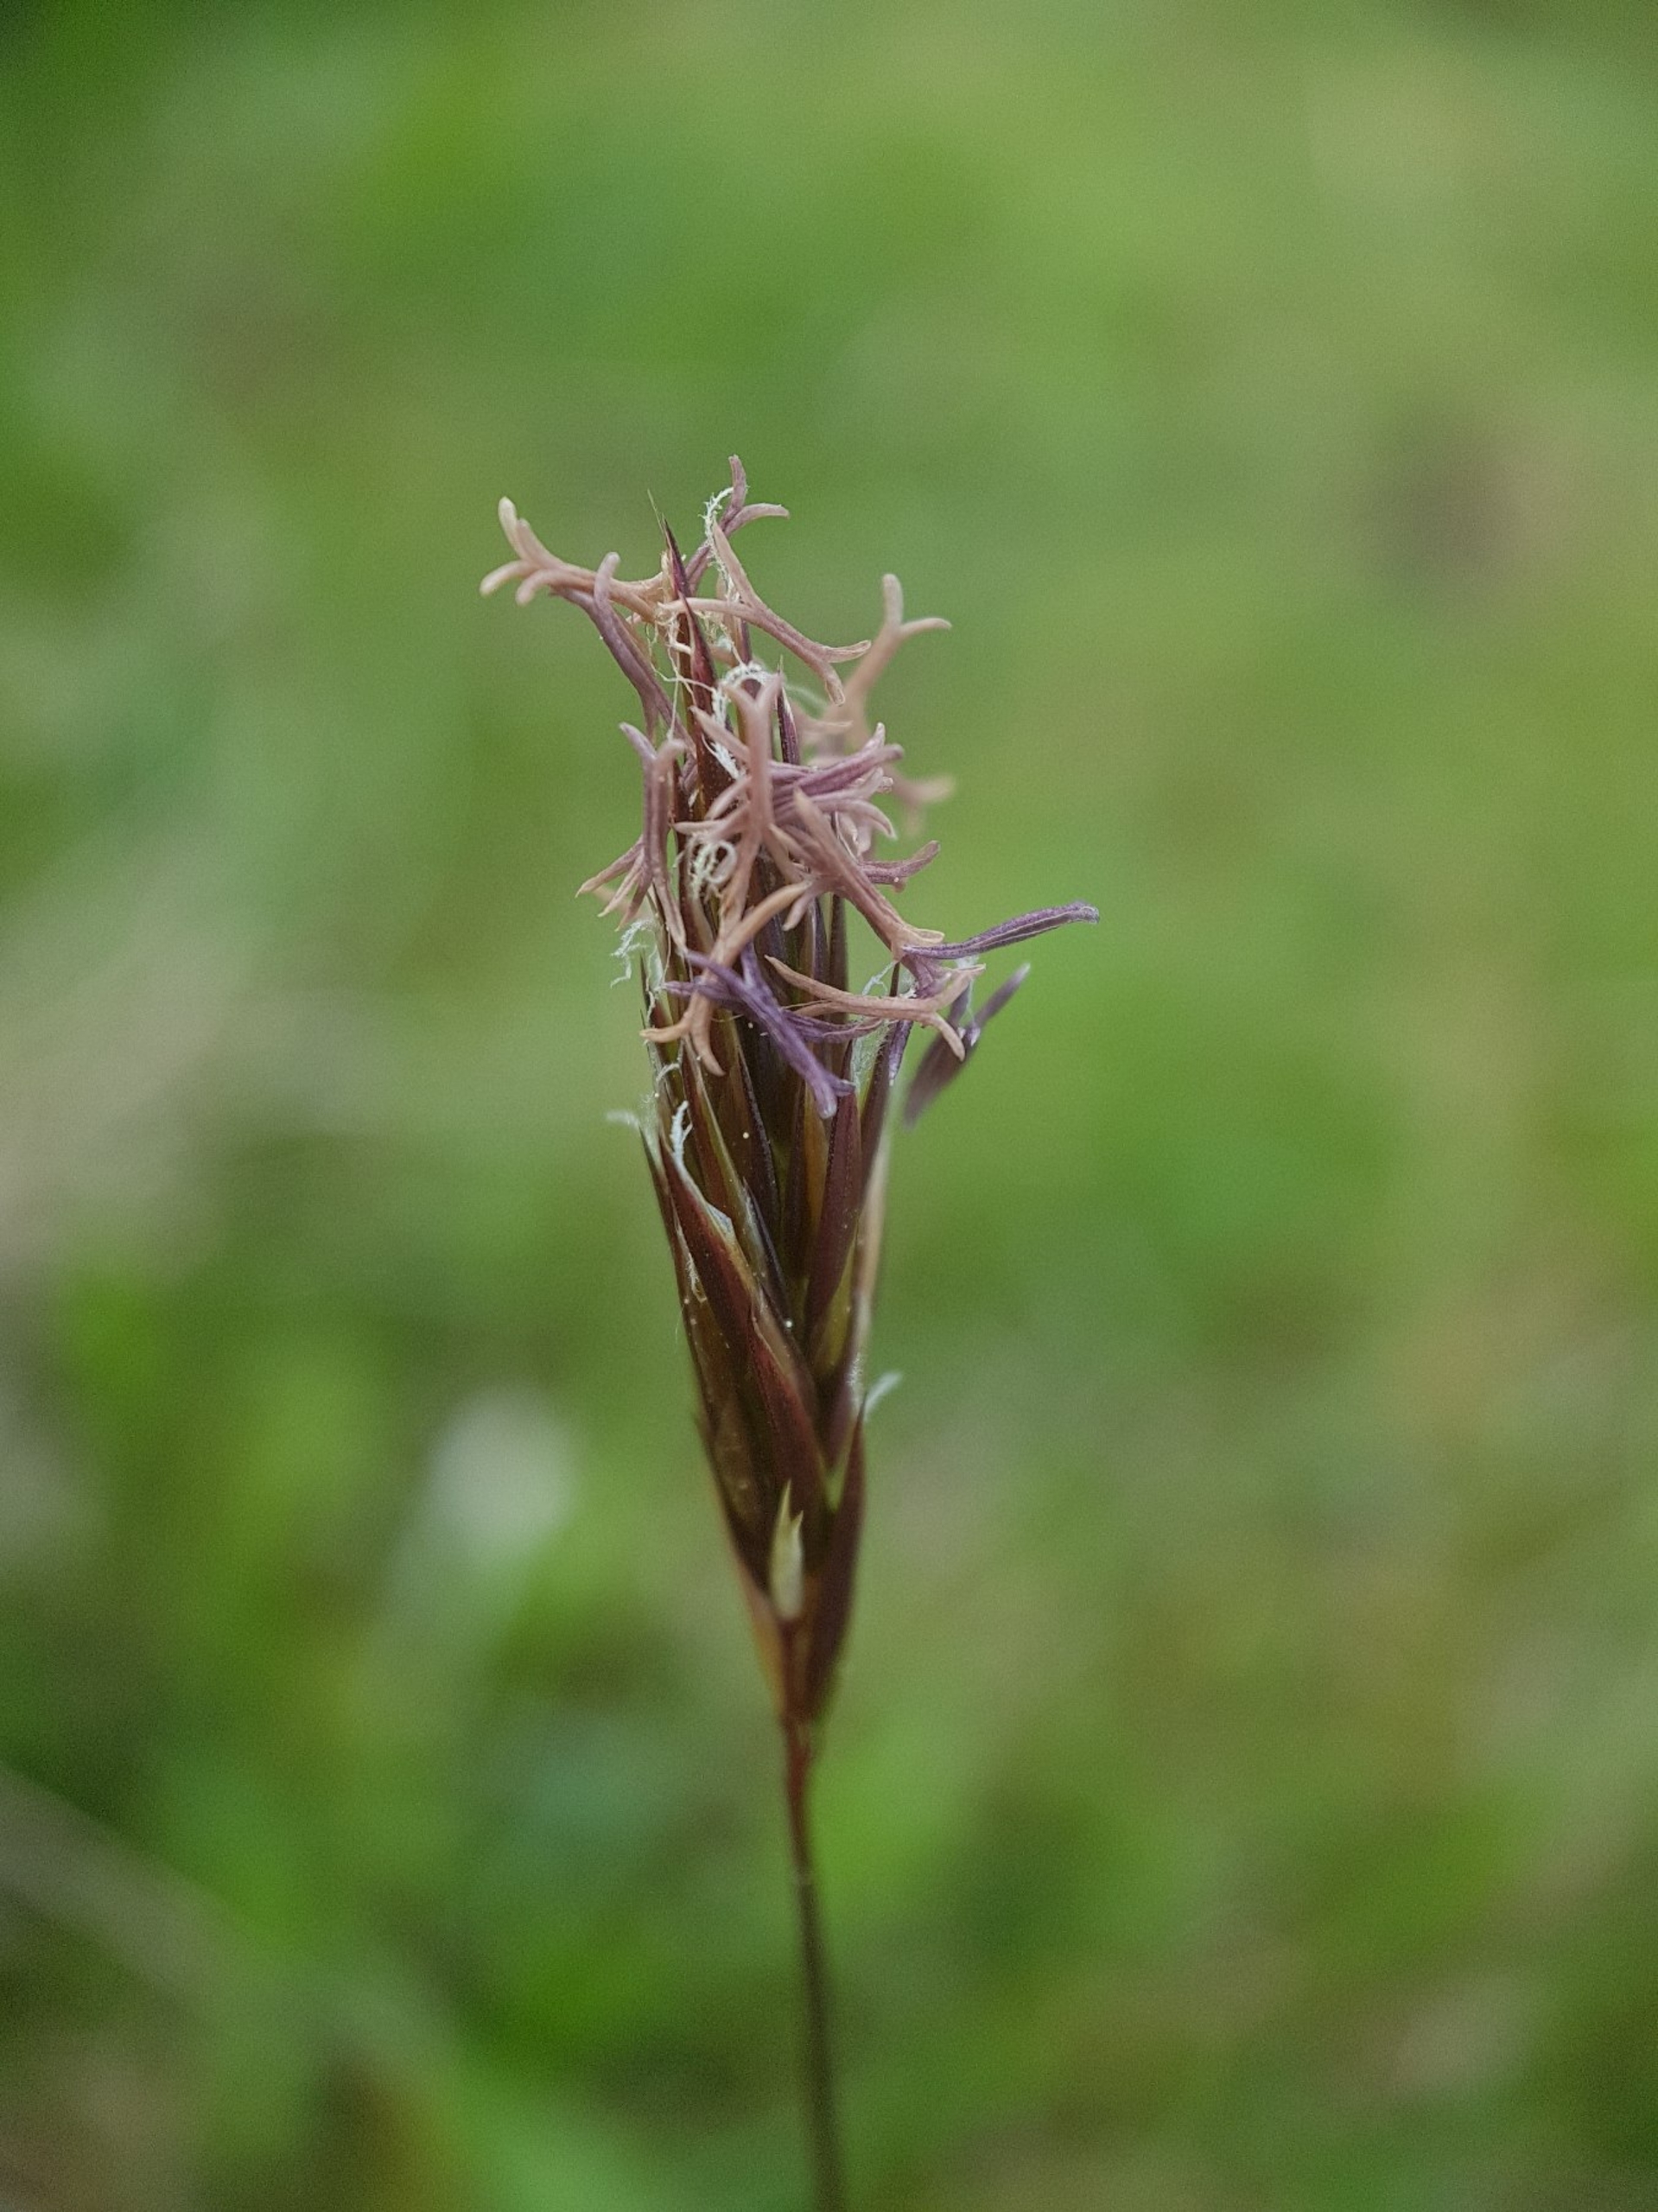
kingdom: Plantae
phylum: Tracheophyta
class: Liliopsida
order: Poales
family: Poaceae
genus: Anthoxanthum
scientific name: Anthoxanthum odoratum
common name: Vellugtende gulaks
